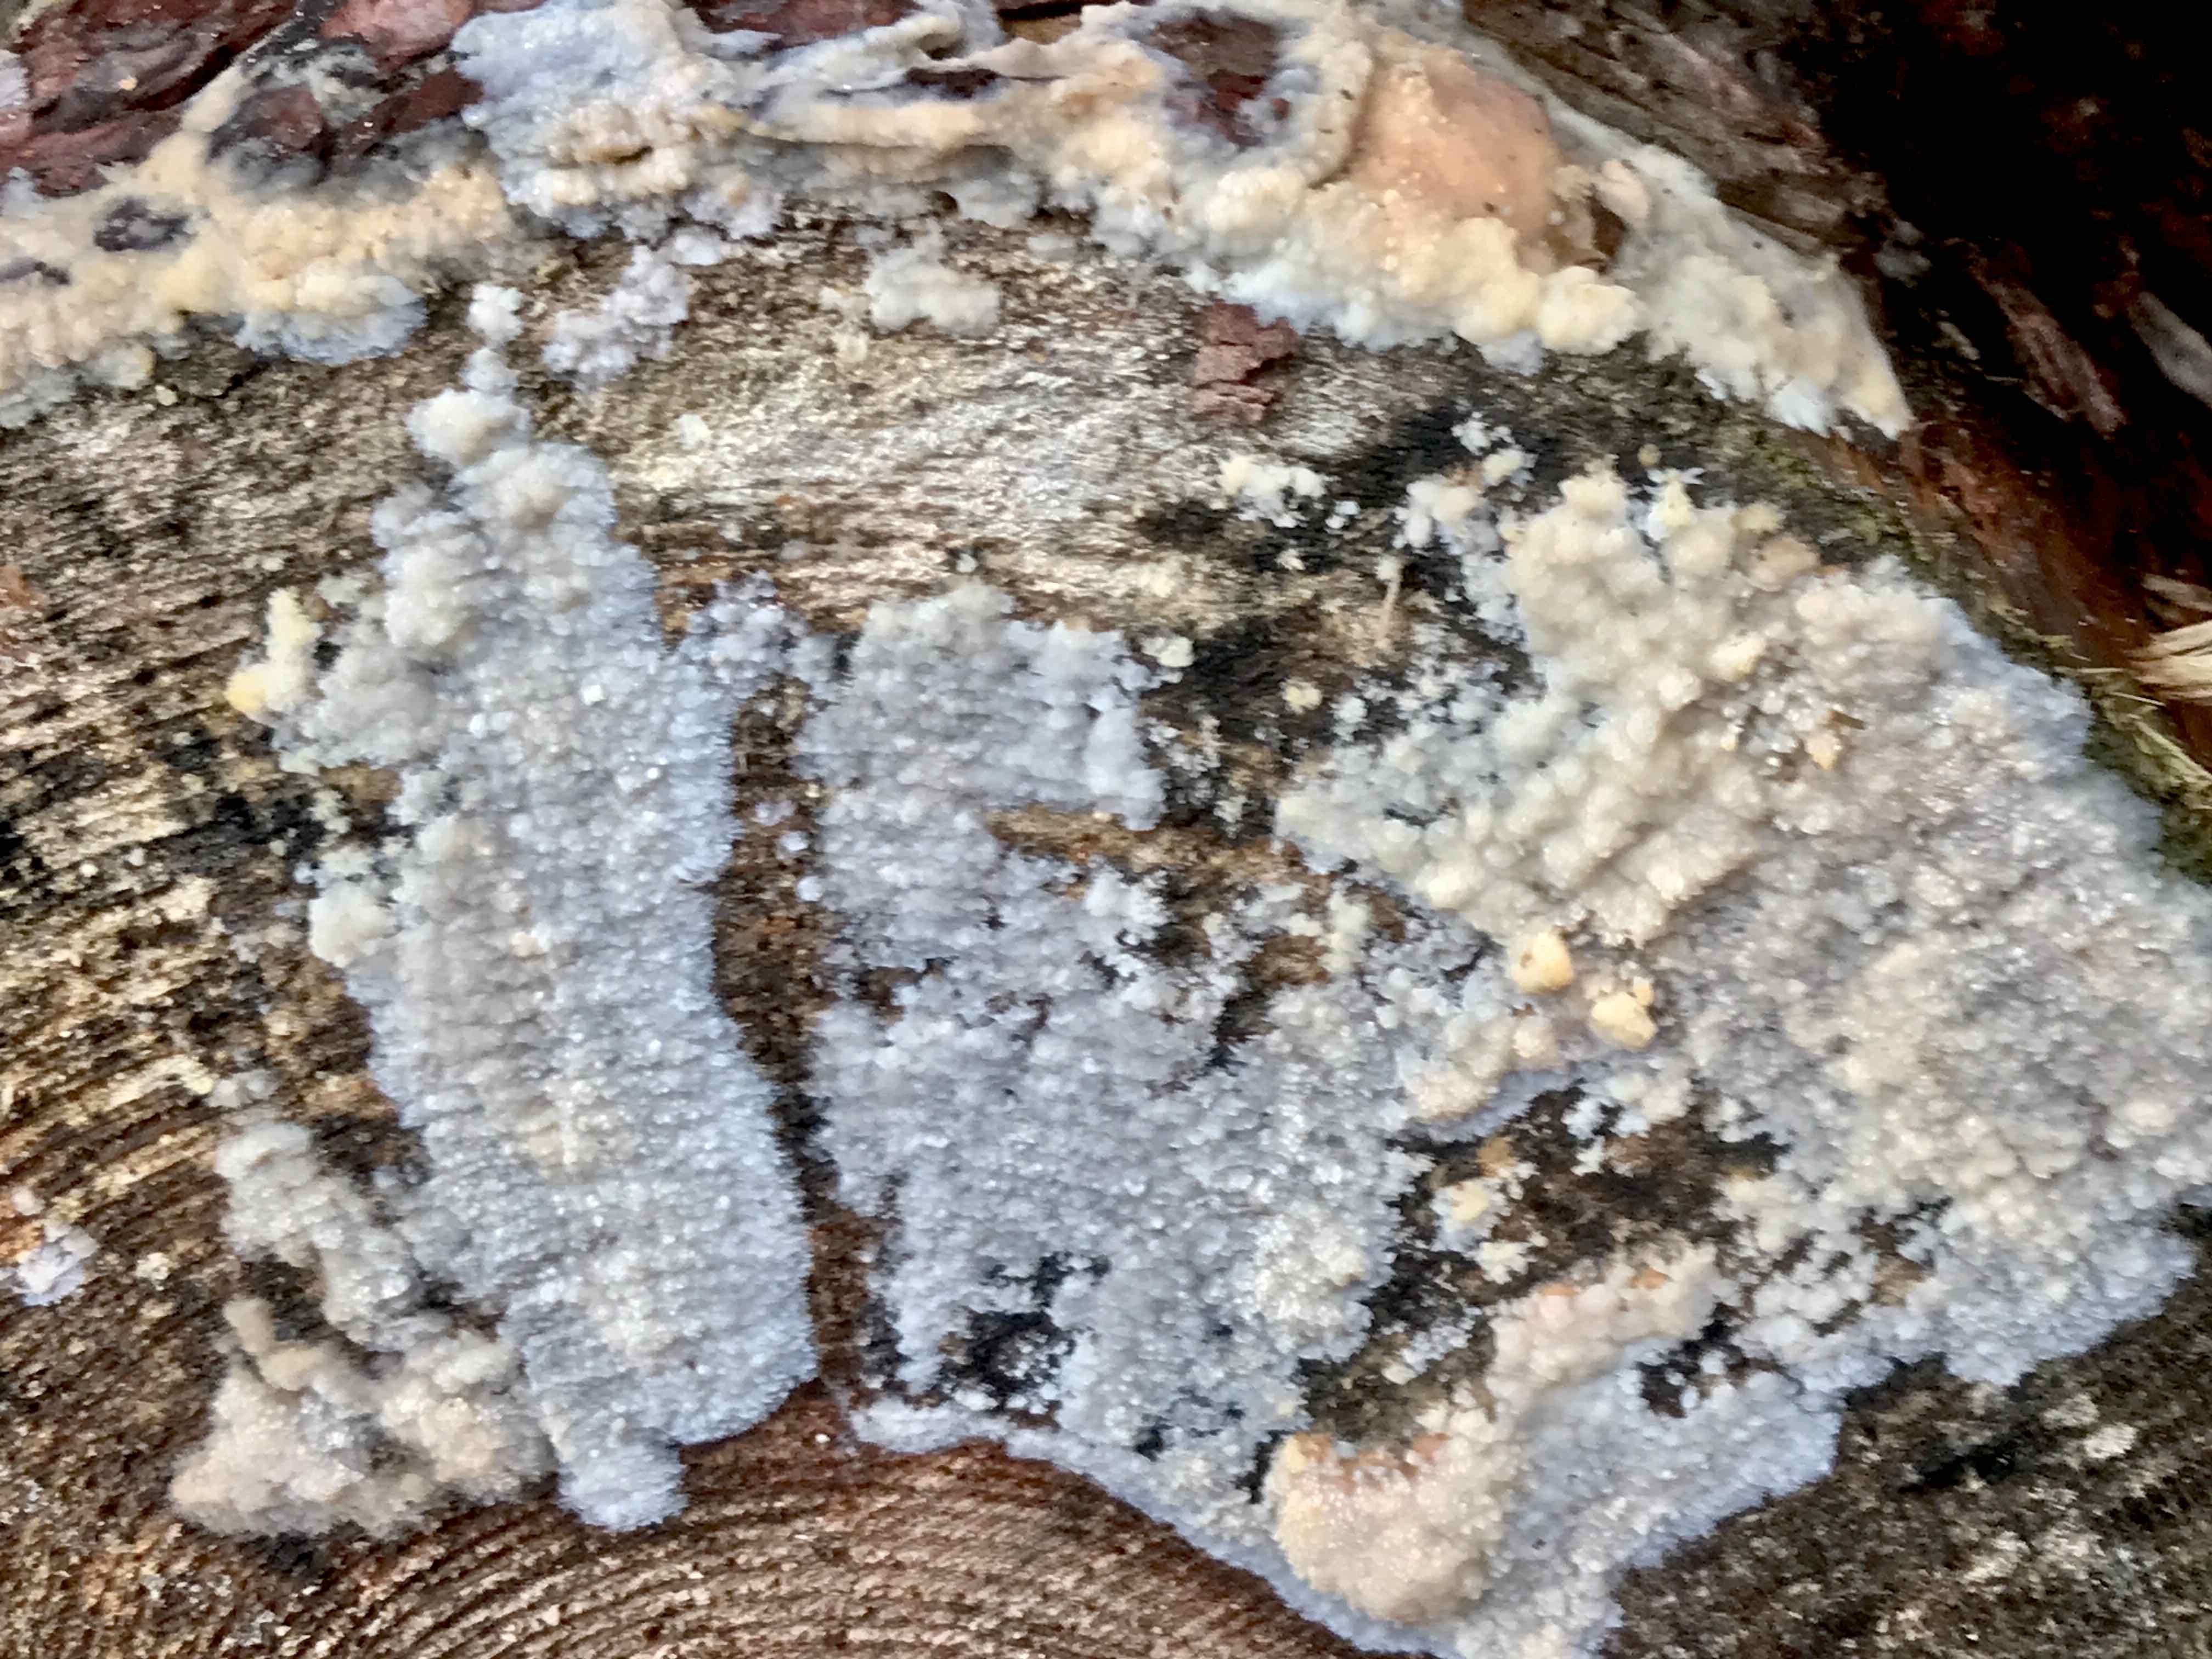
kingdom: Fungi
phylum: Basidiomycota
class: Agaricomycetes
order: Polyporales
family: Phanerochaetaceae
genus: Phlebiopsis
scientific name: Phlebiopsis gigantea
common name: kæmpebarksvamp
